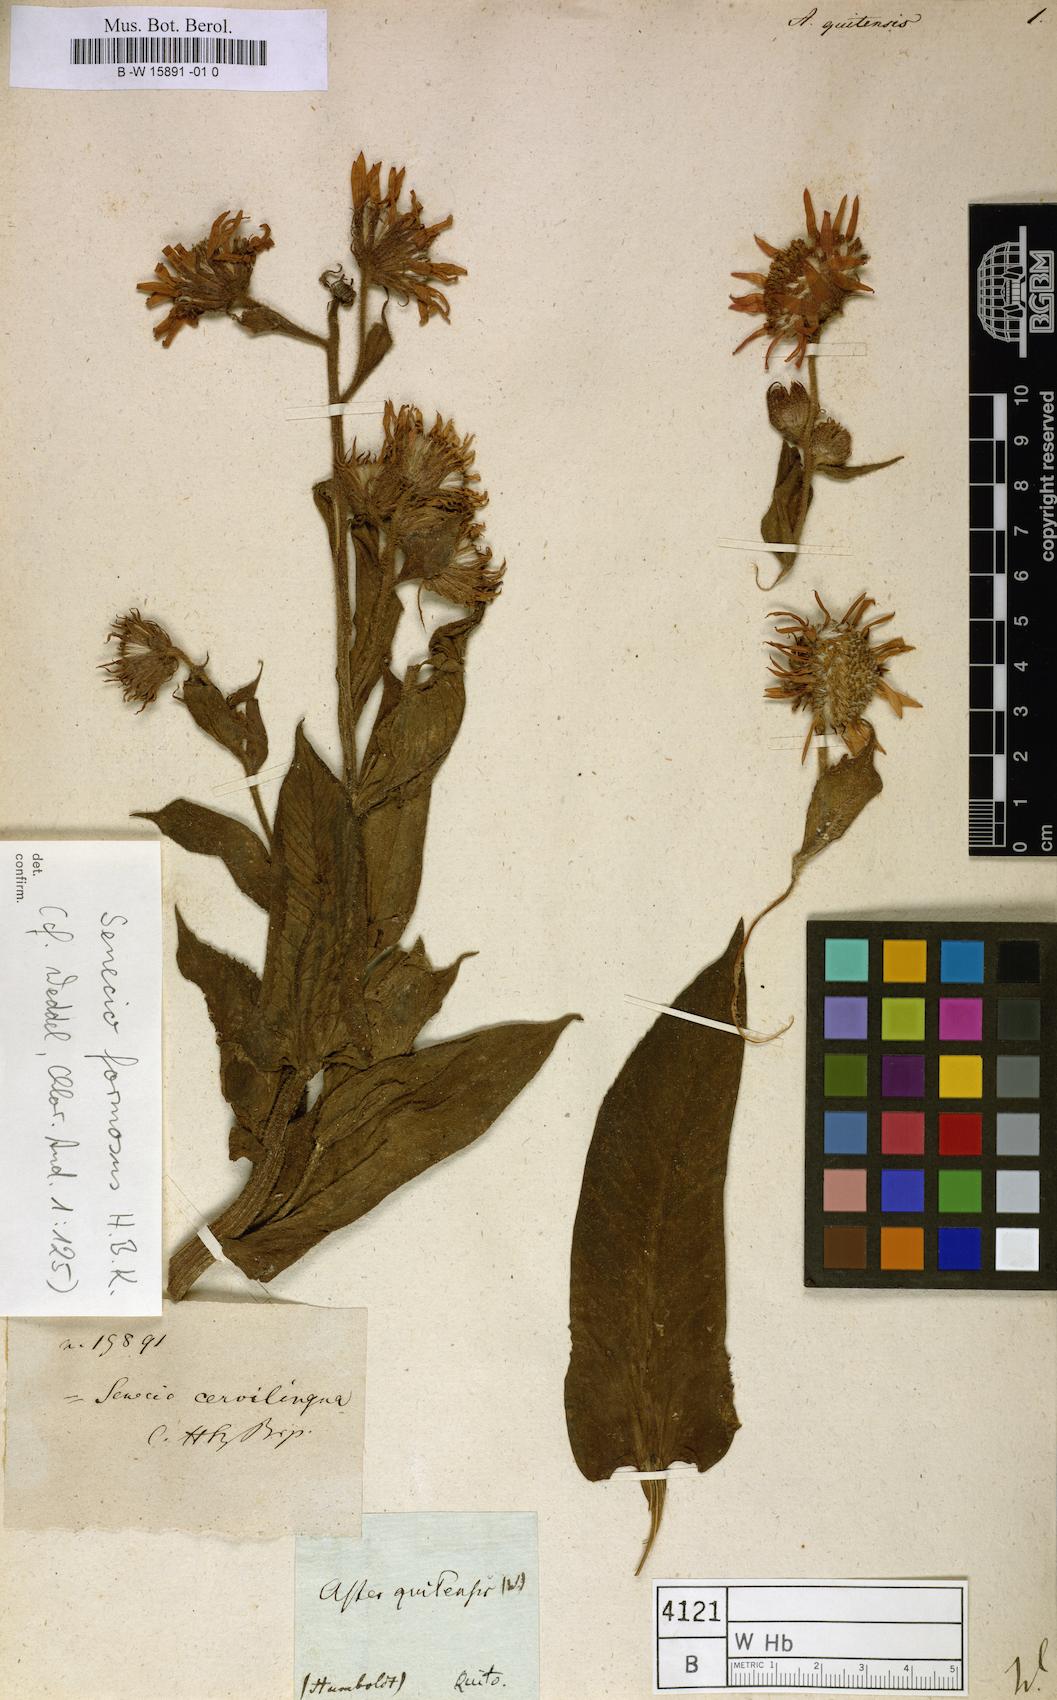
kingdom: Plantae
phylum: Tracheophyta
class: Magnoliopsida
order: Asterales
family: Asteraceae
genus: Aster
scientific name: Aster quitensis
